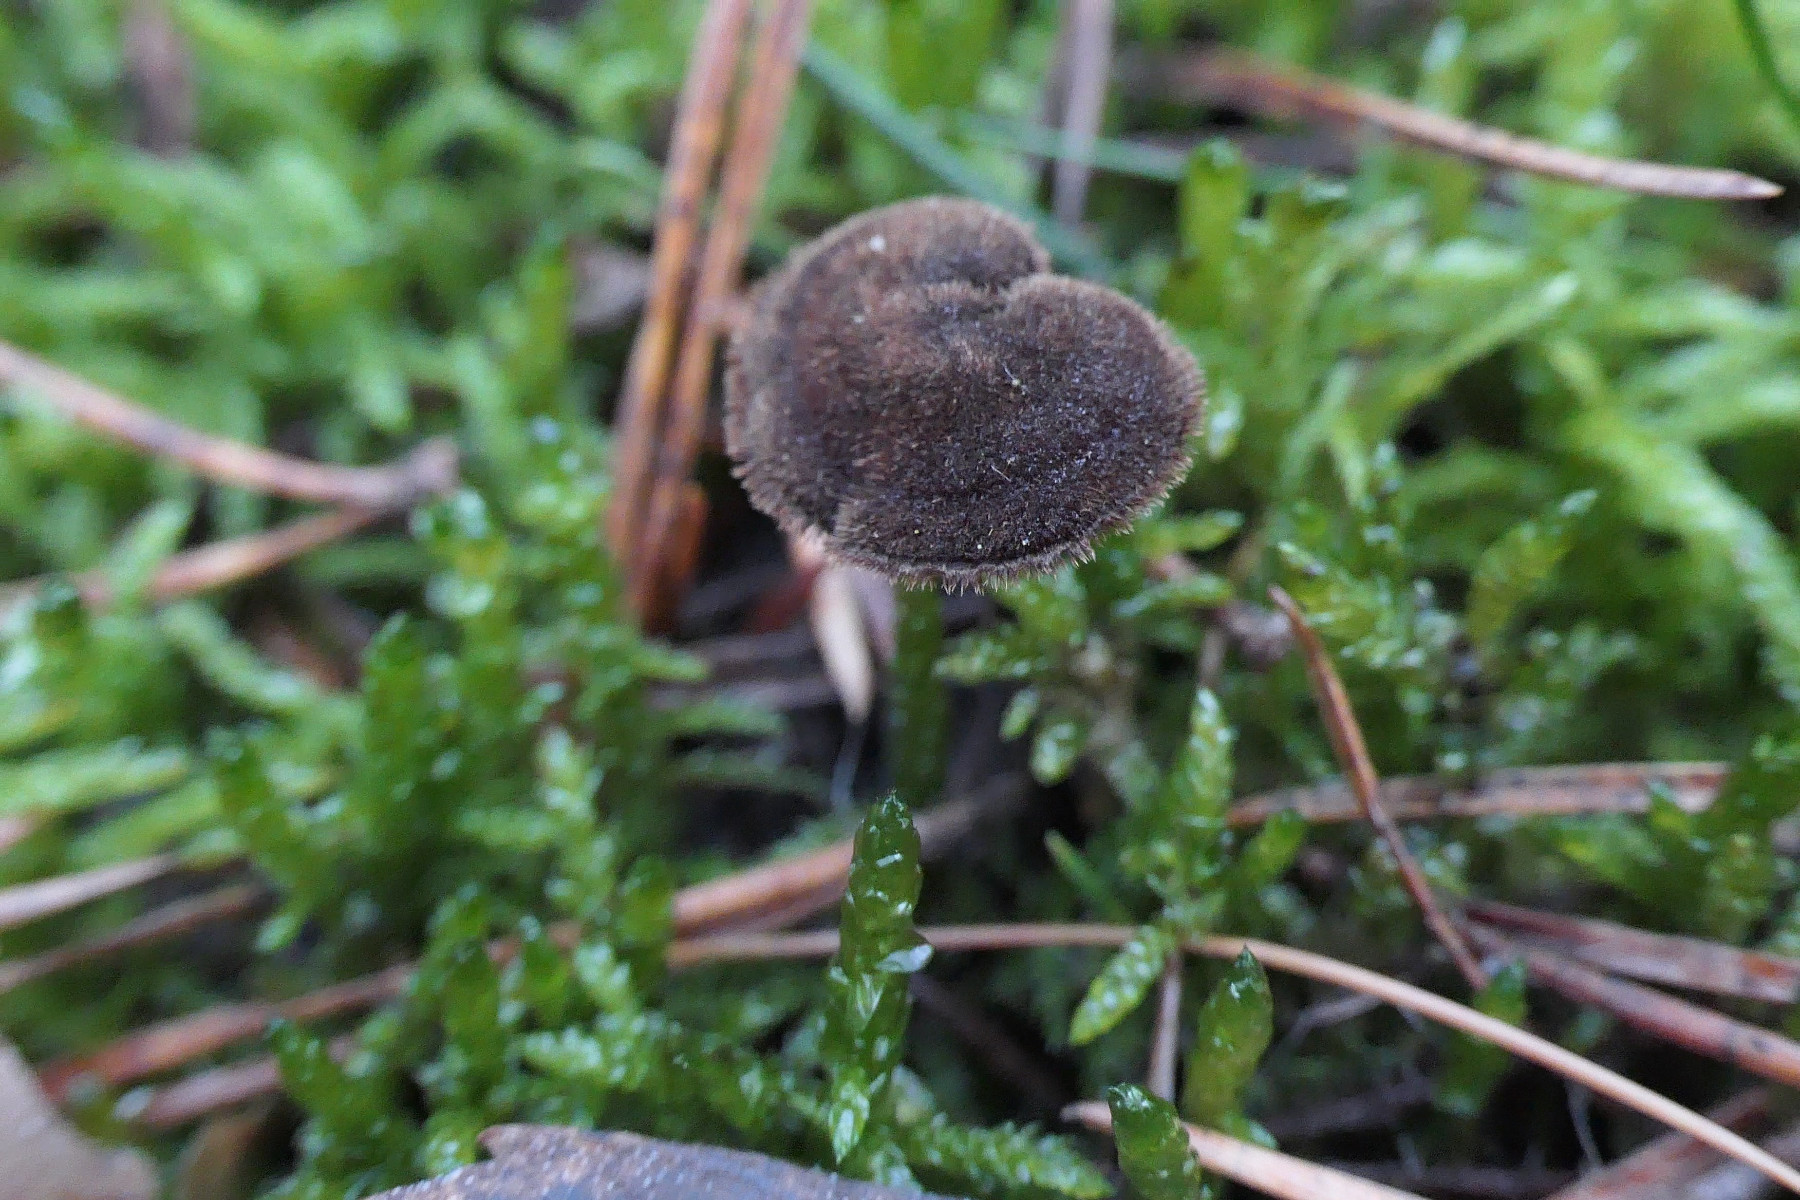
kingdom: Fungi
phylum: Basidiomycota
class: Agaricomycetes
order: Russulales
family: Auriscalpiaceae
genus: Auriscalpium
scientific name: Auriscalpium vulgare
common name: koglepigsvamp
